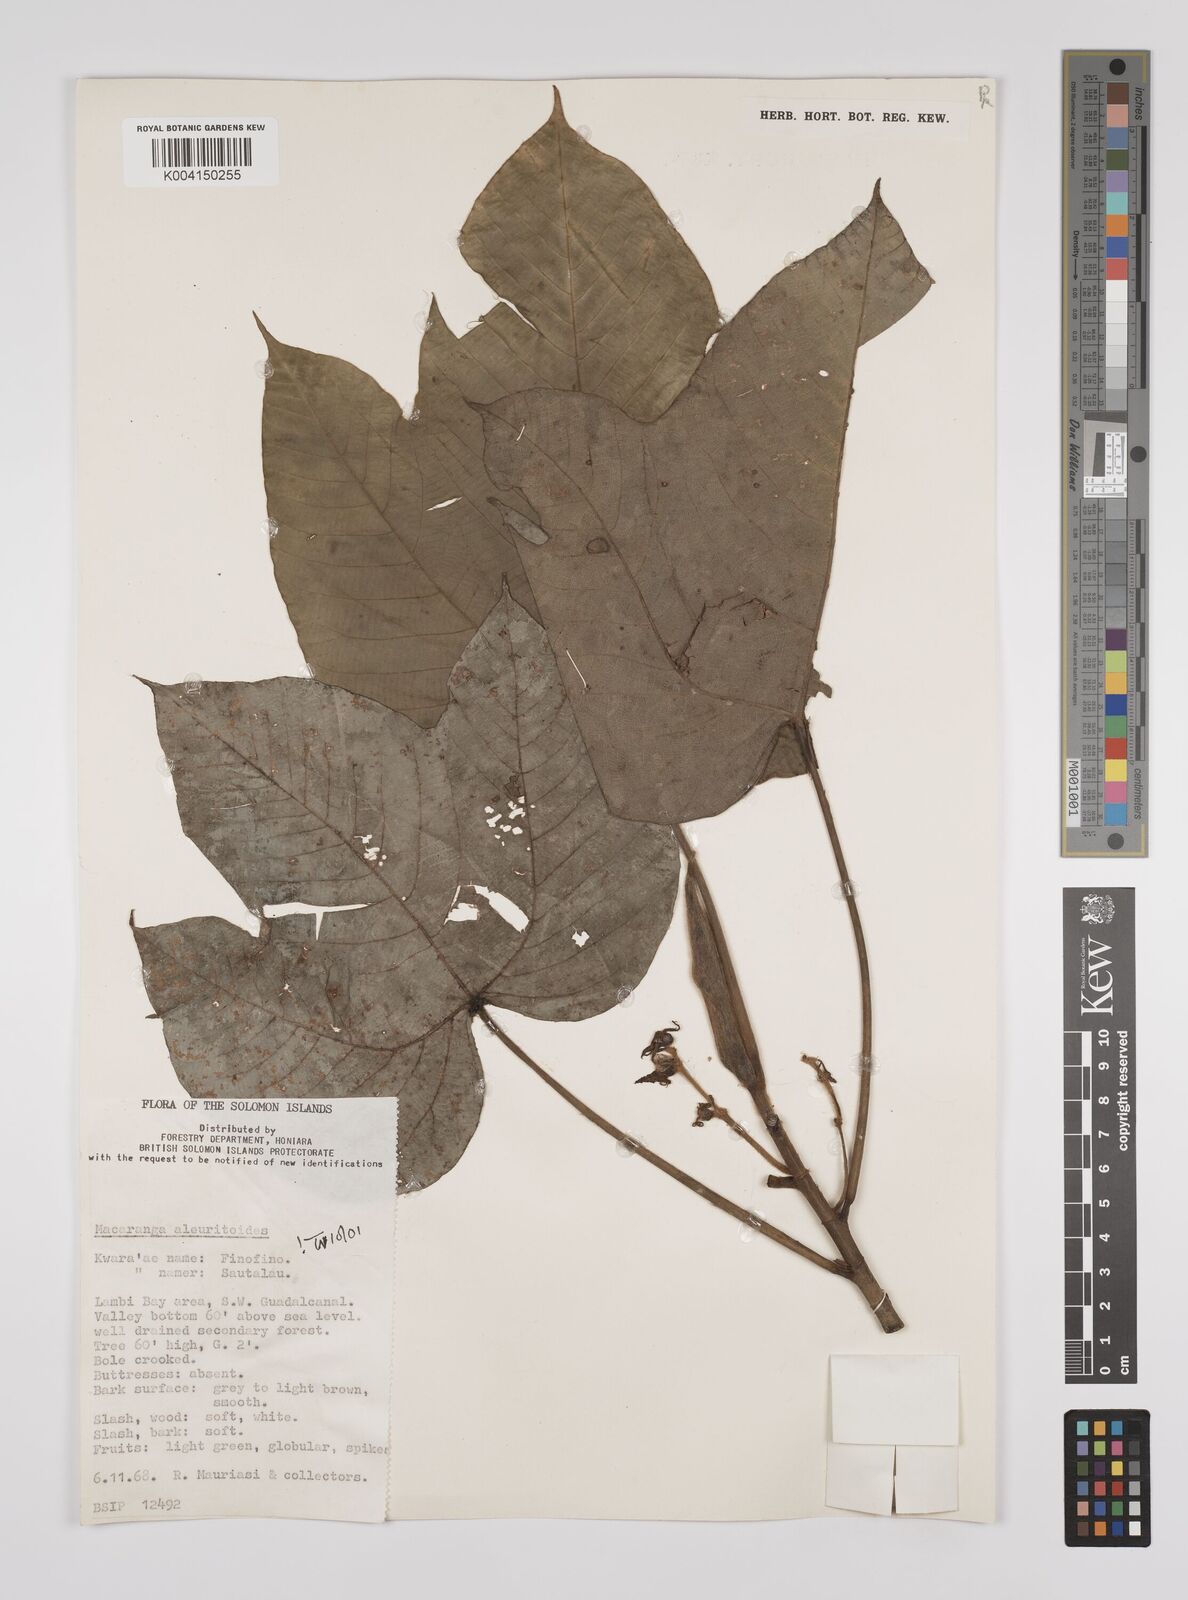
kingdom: Plantae
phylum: Tracheophyta
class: Magnoliopsida
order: Malpighiales
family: Euphorbiaceae
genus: Macaranga
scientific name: Macaranga aleuritoides
